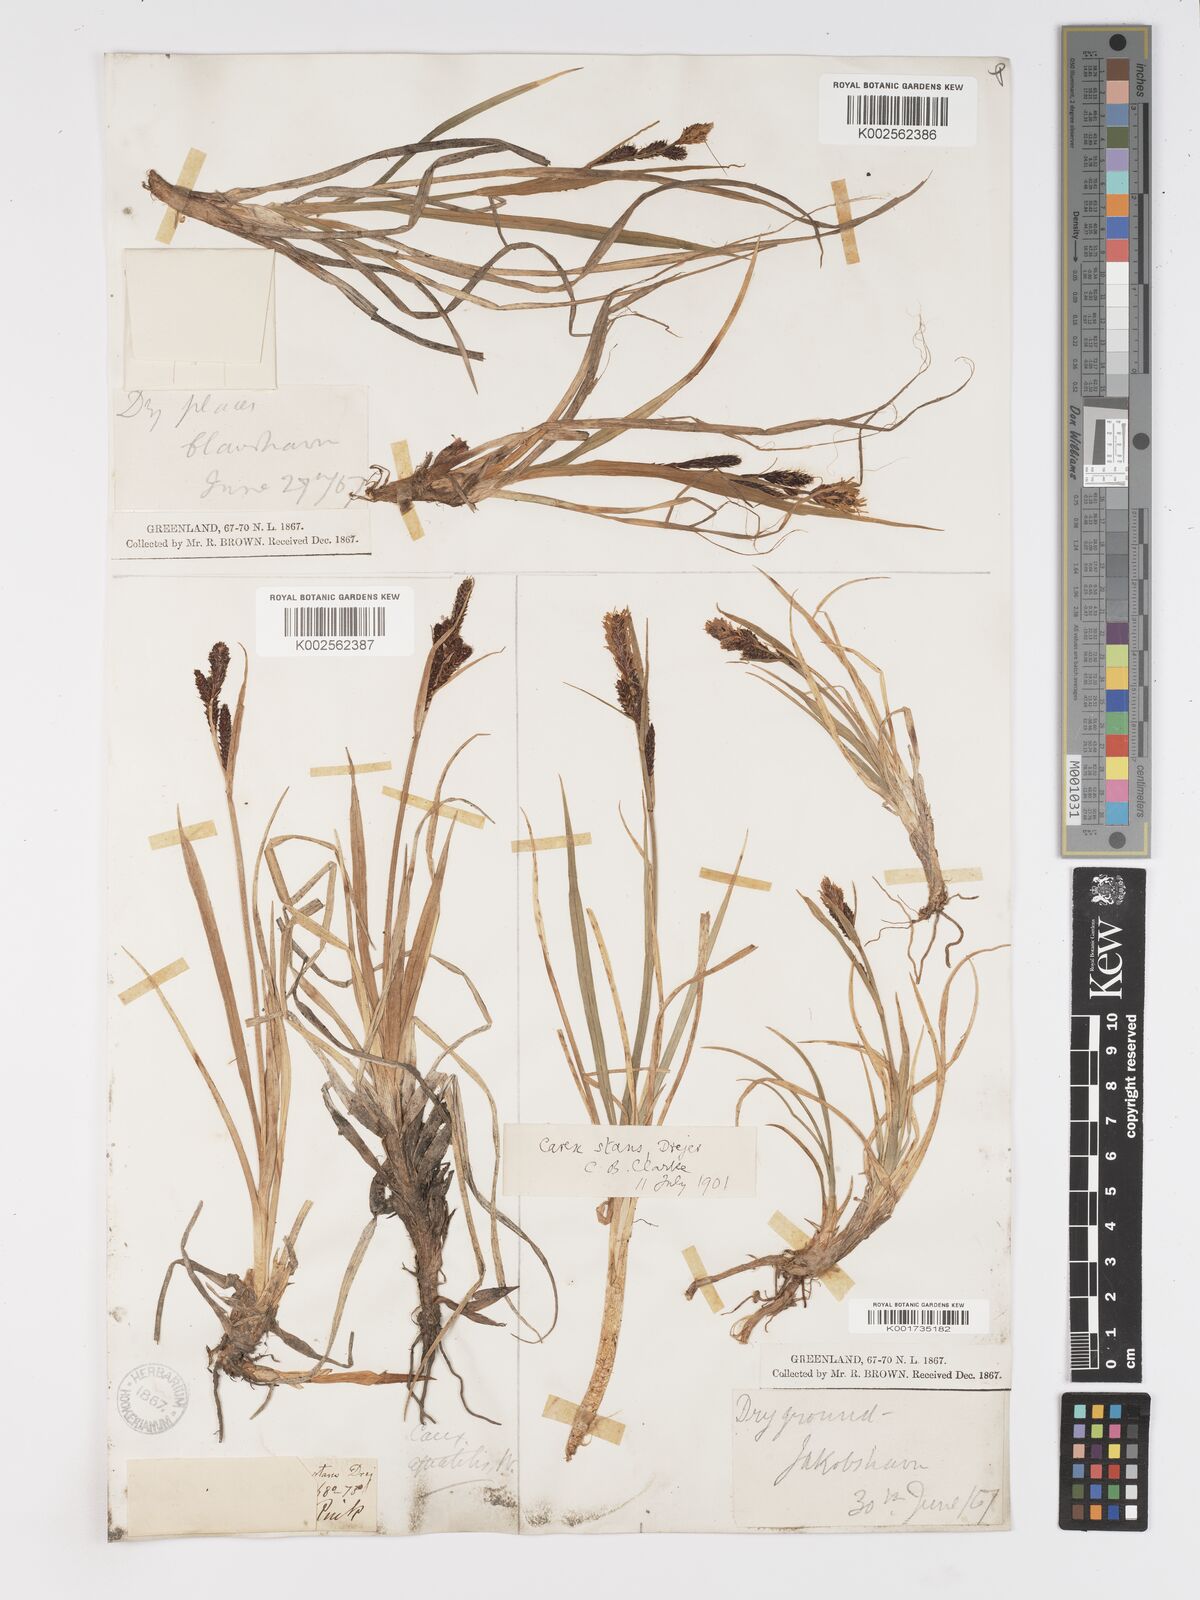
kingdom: Plantae
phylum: Tracheophyta
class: Liliopsida
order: Poales
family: Cyperaceae
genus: Carex
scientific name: Carex aquatilis
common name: Water sedge
